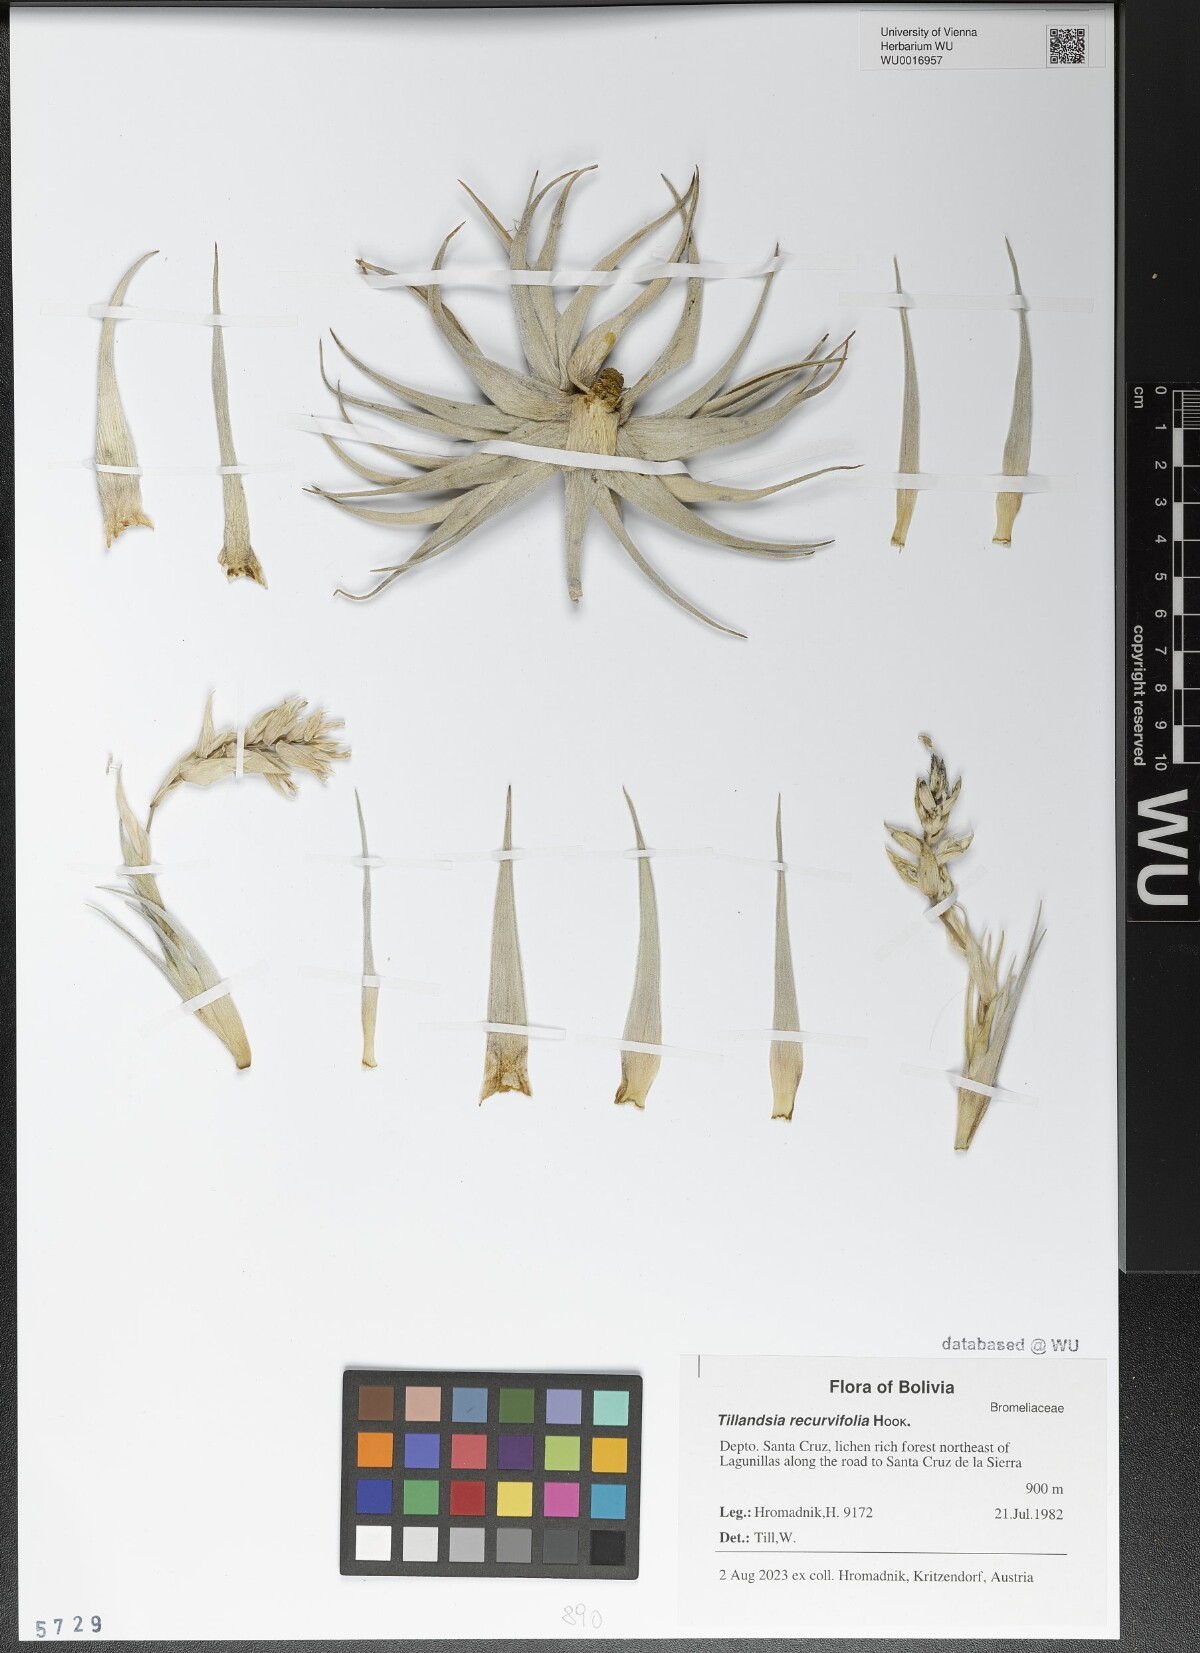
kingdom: Plantae
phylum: Tracheophyta
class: Liliopsida
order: Poales
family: Bromeliaceae
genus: Tillandsia
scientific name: Tillandsia recurvifolia
